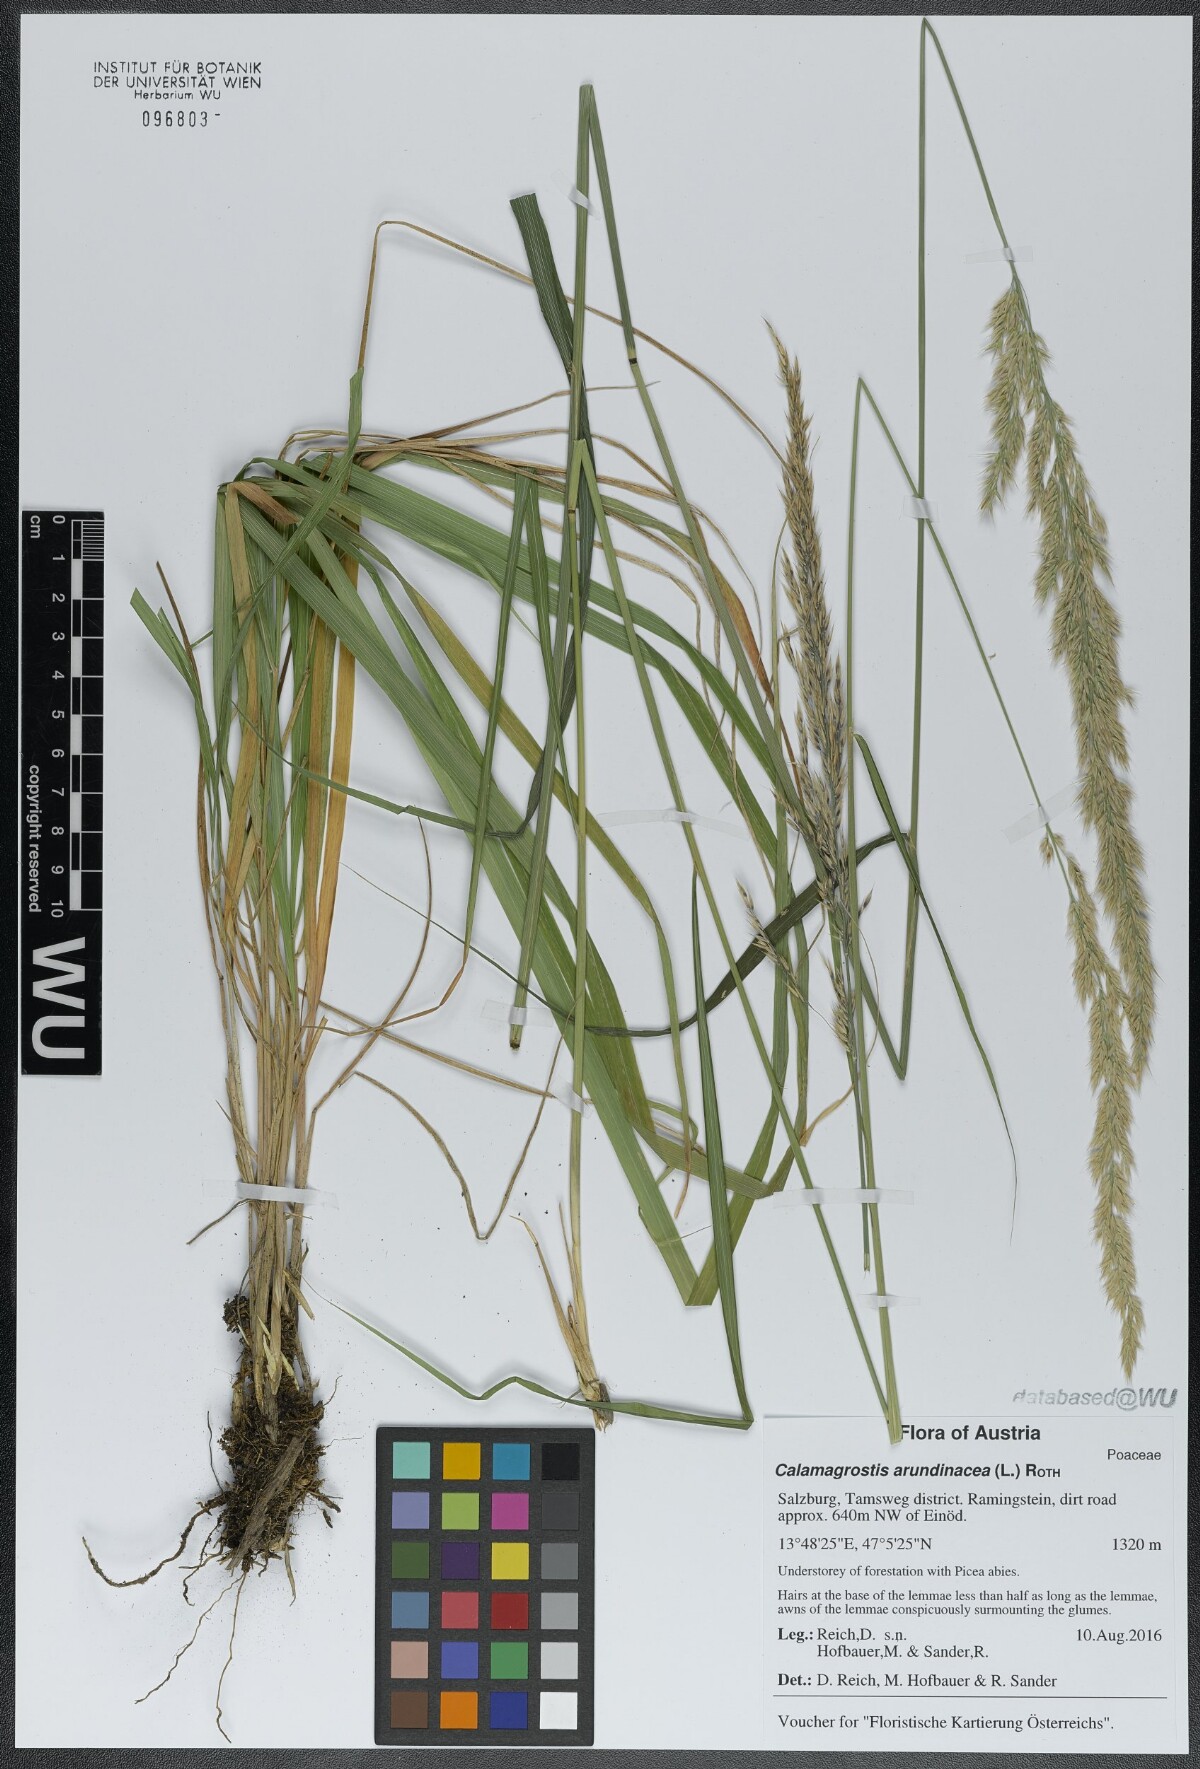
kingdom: Plantae
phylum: Tracheophyta
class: Liliopsida
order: Poales
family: Poaceae
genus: Calamagrostis
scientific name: Calamagrostis arundinacea
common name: Metskastik
